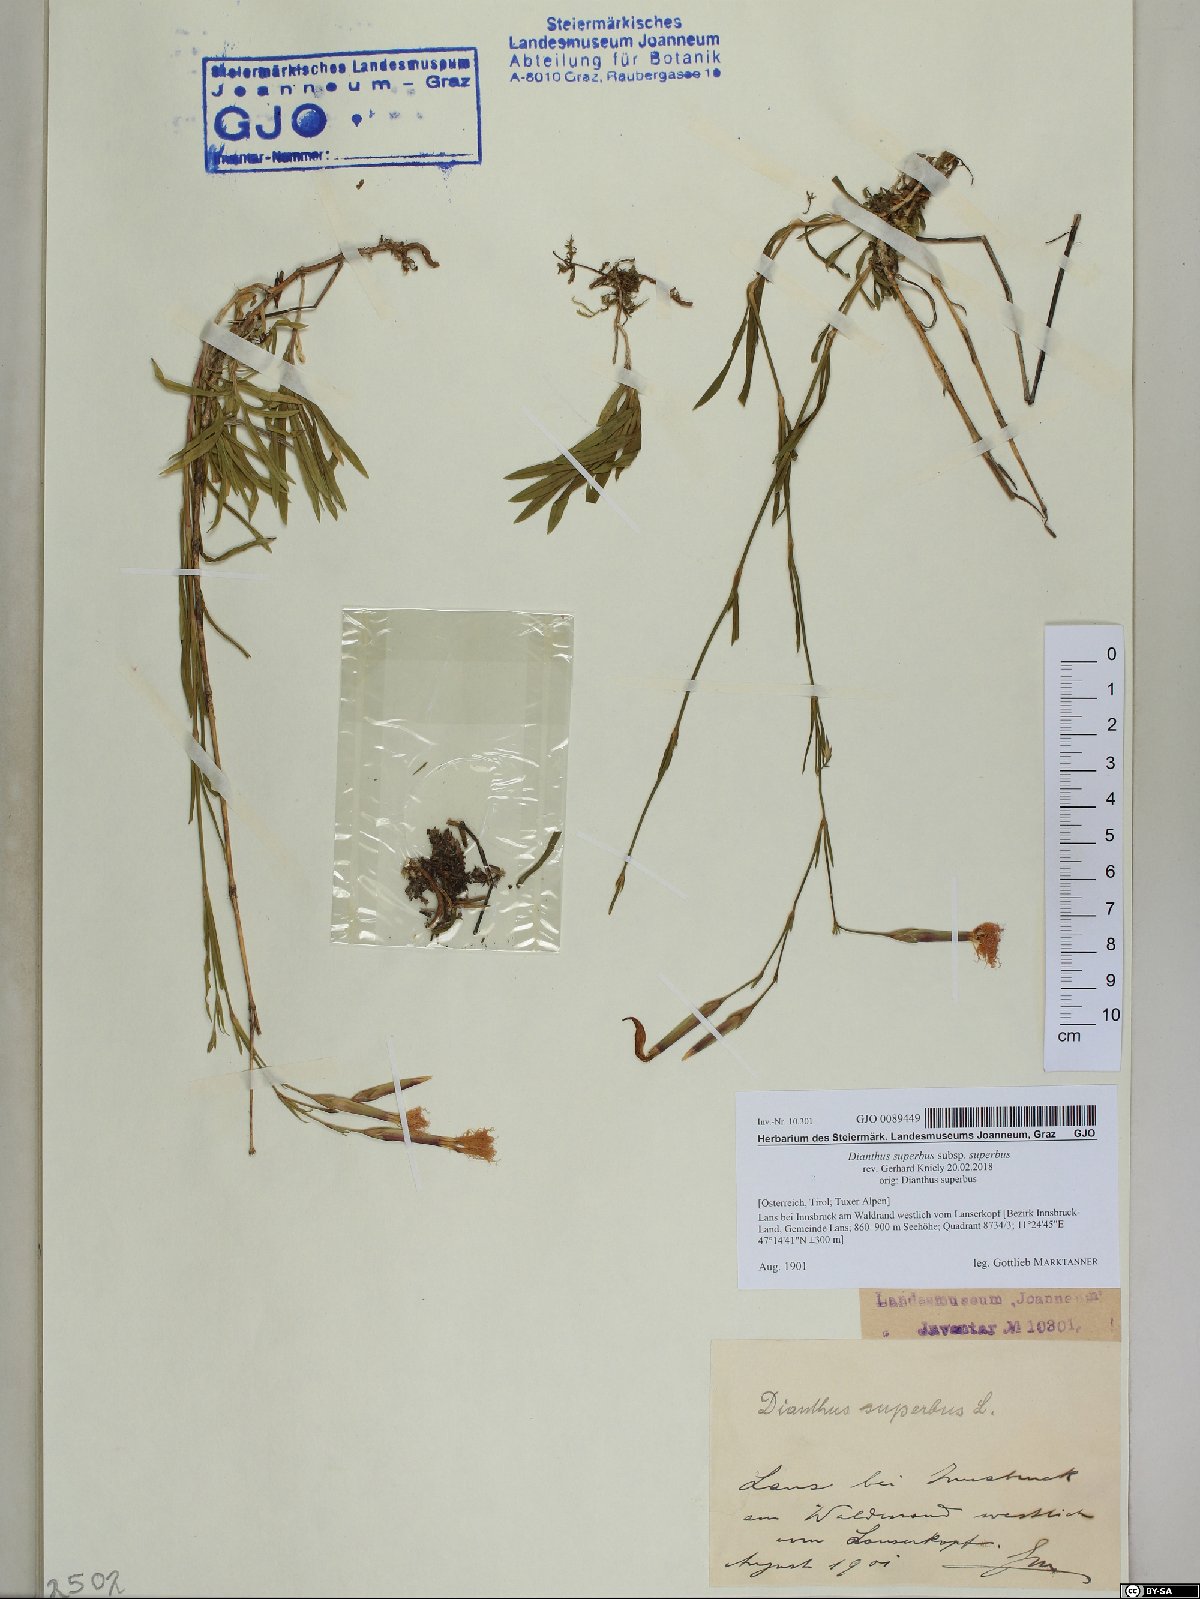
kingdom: Plantae
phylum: Tracheophyta
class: Magnoliopsida
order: Caryophyllales
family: Caryophyllaceae
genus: Dianthus
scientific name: Dianthus superbus
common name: Fringed pink
